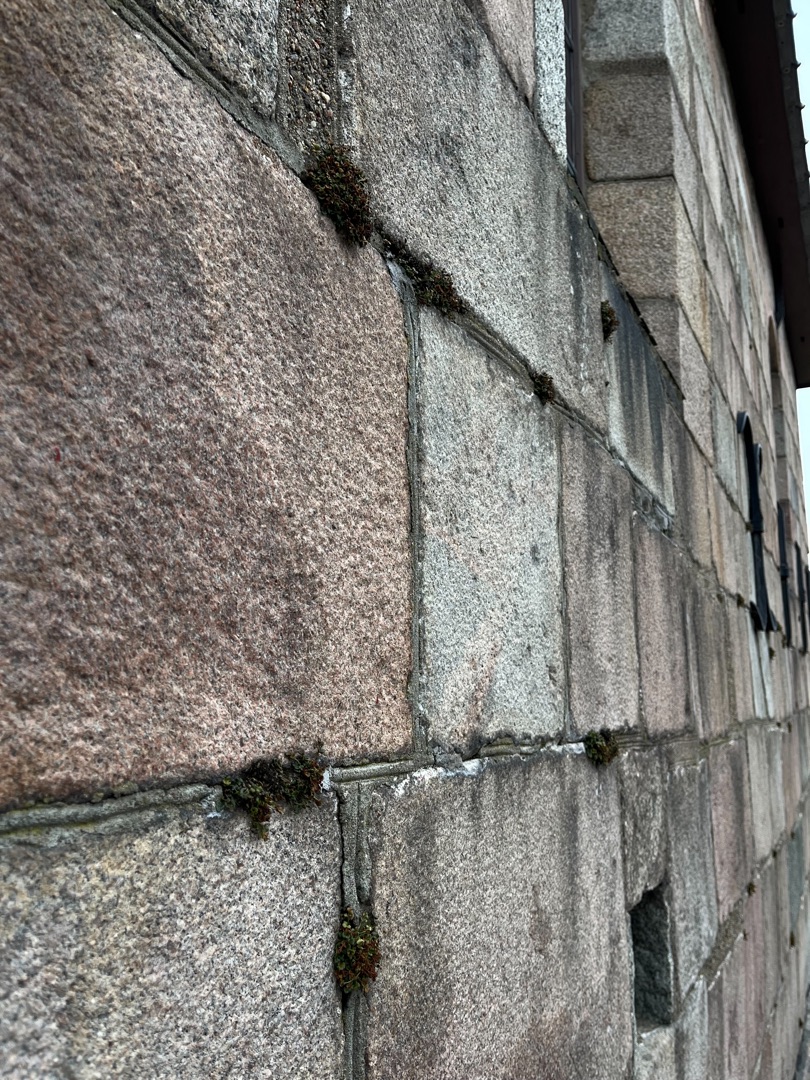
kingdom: Plantae
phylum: Tracheophyta
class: Polypodiopsida
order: Polypodiales
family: Aspleniaceae
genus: Asplenium
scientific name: Asplenium ruta-muraria
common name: Murrude
